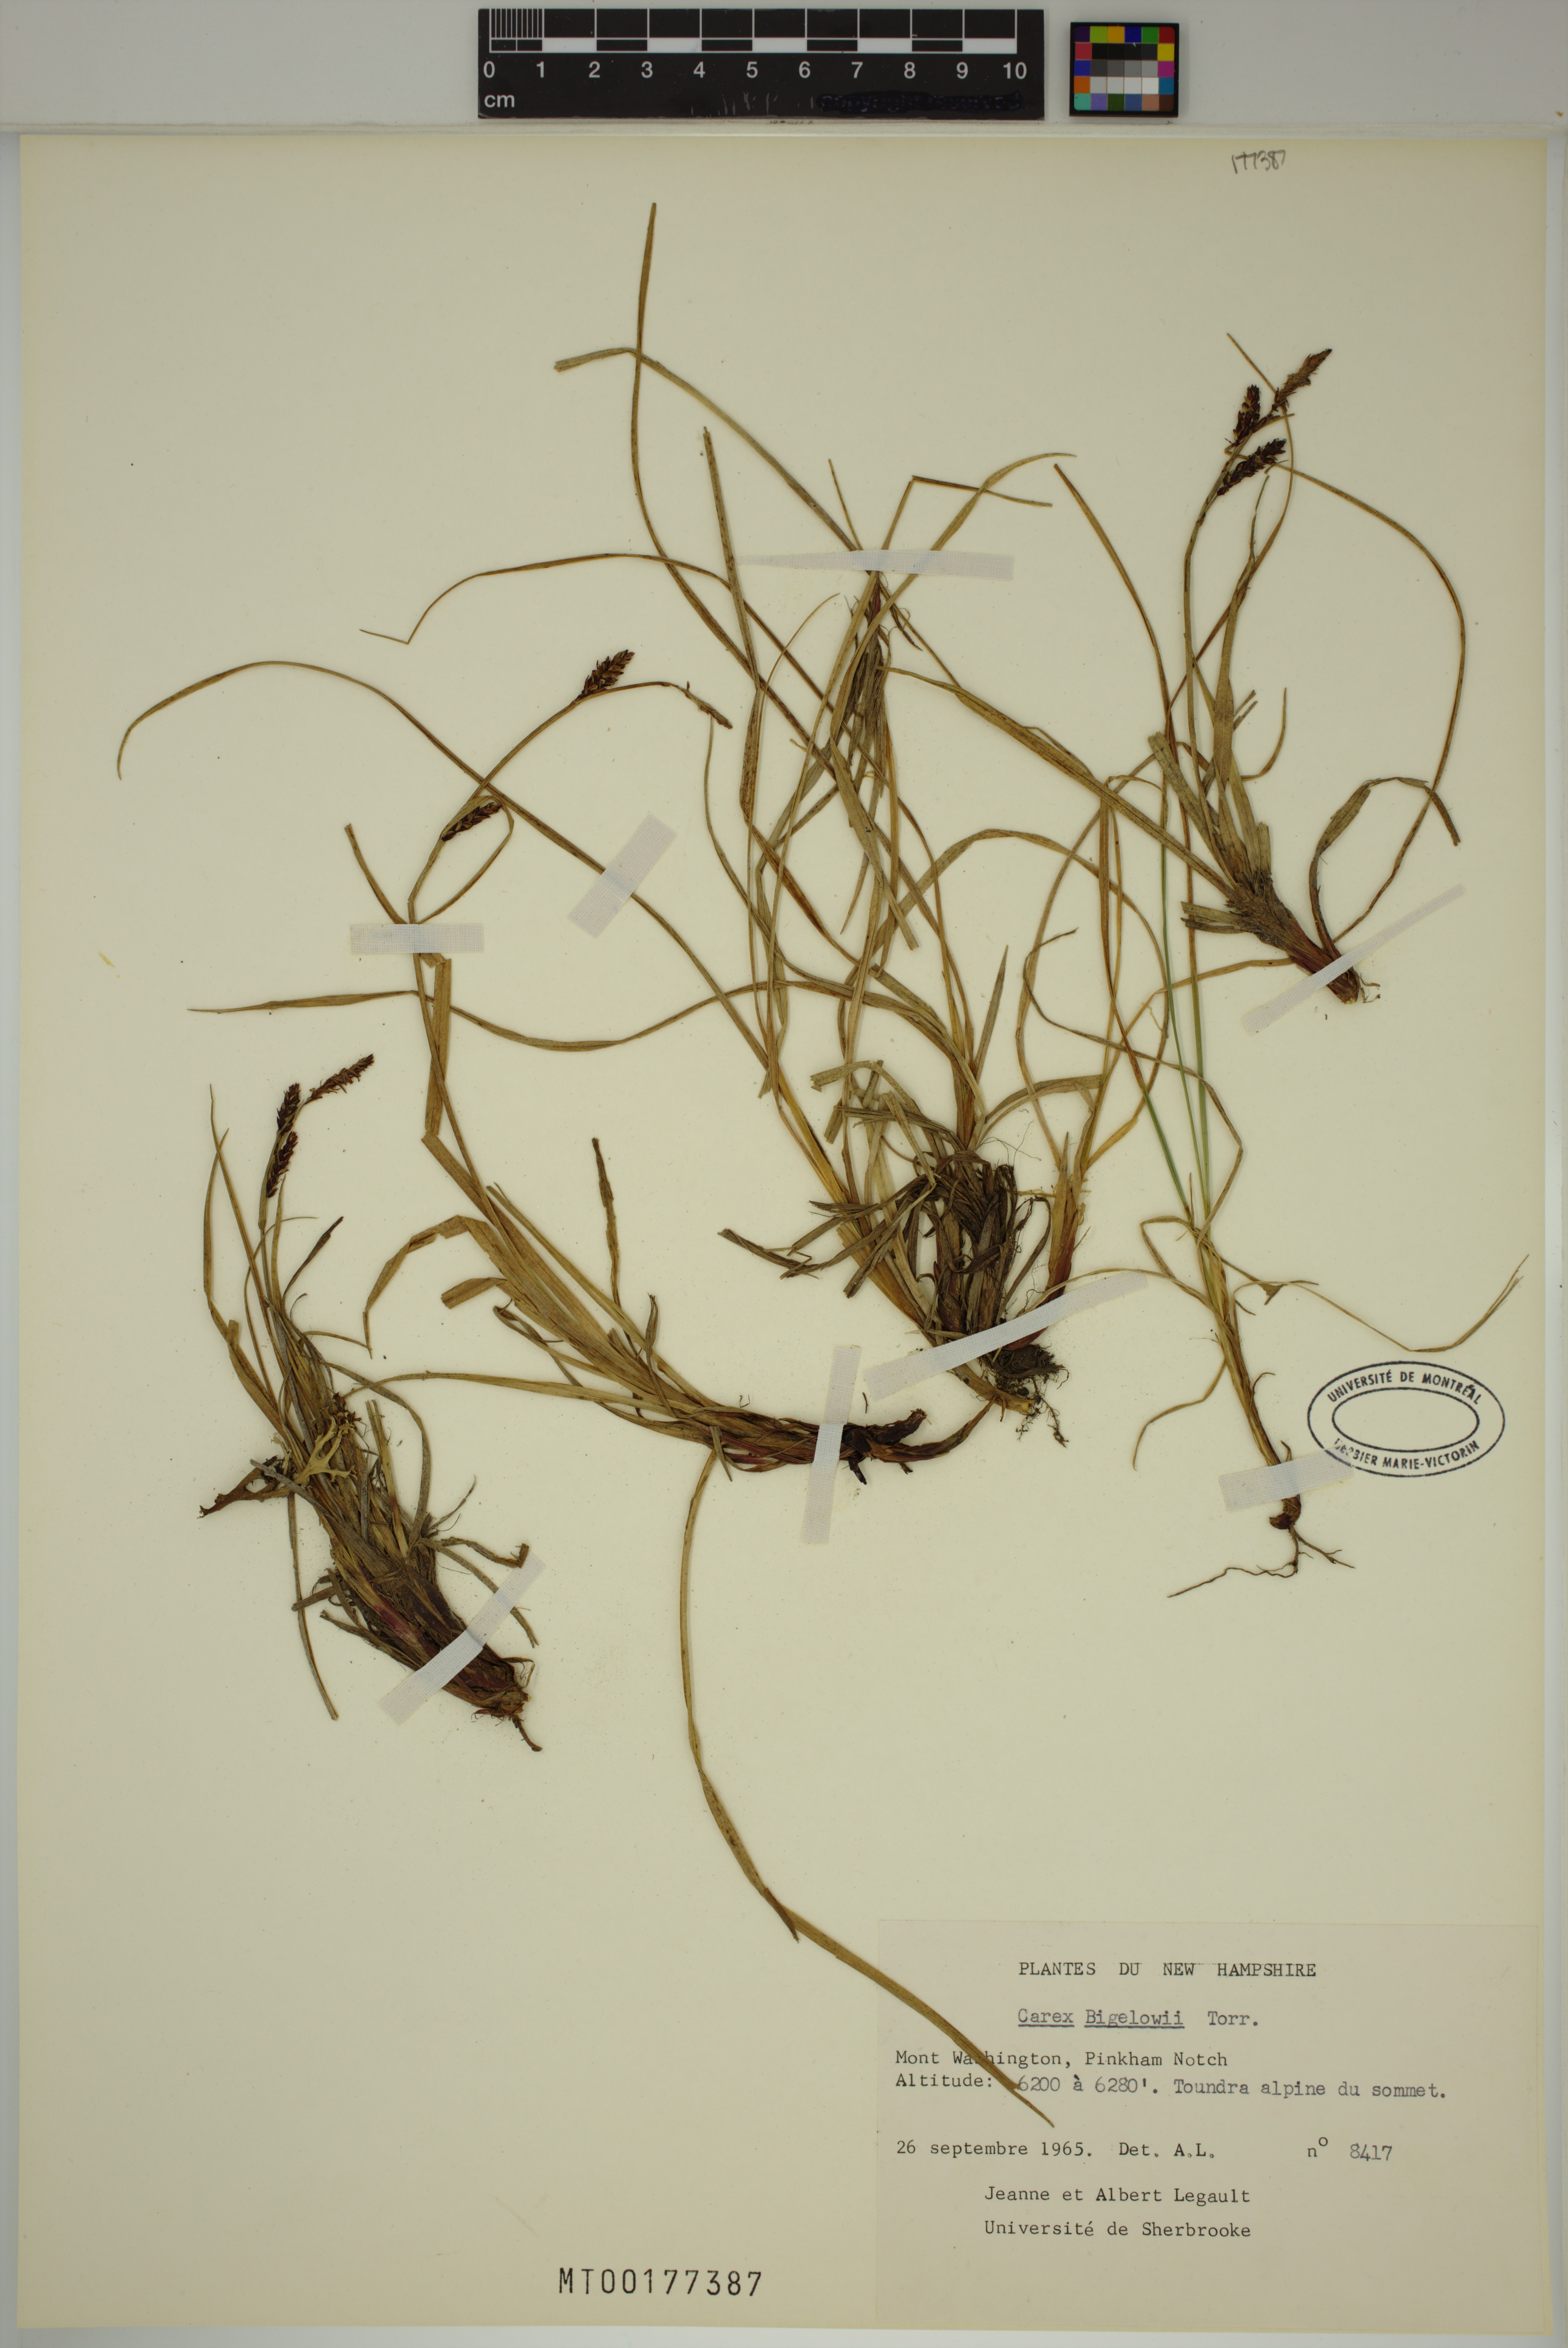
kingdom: Plantae
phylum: Tracheophyta
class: Liliopsida
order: Poales
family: Cyperaceae
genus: Carex
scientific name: Carex bigelowii
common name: Stiff sedge
